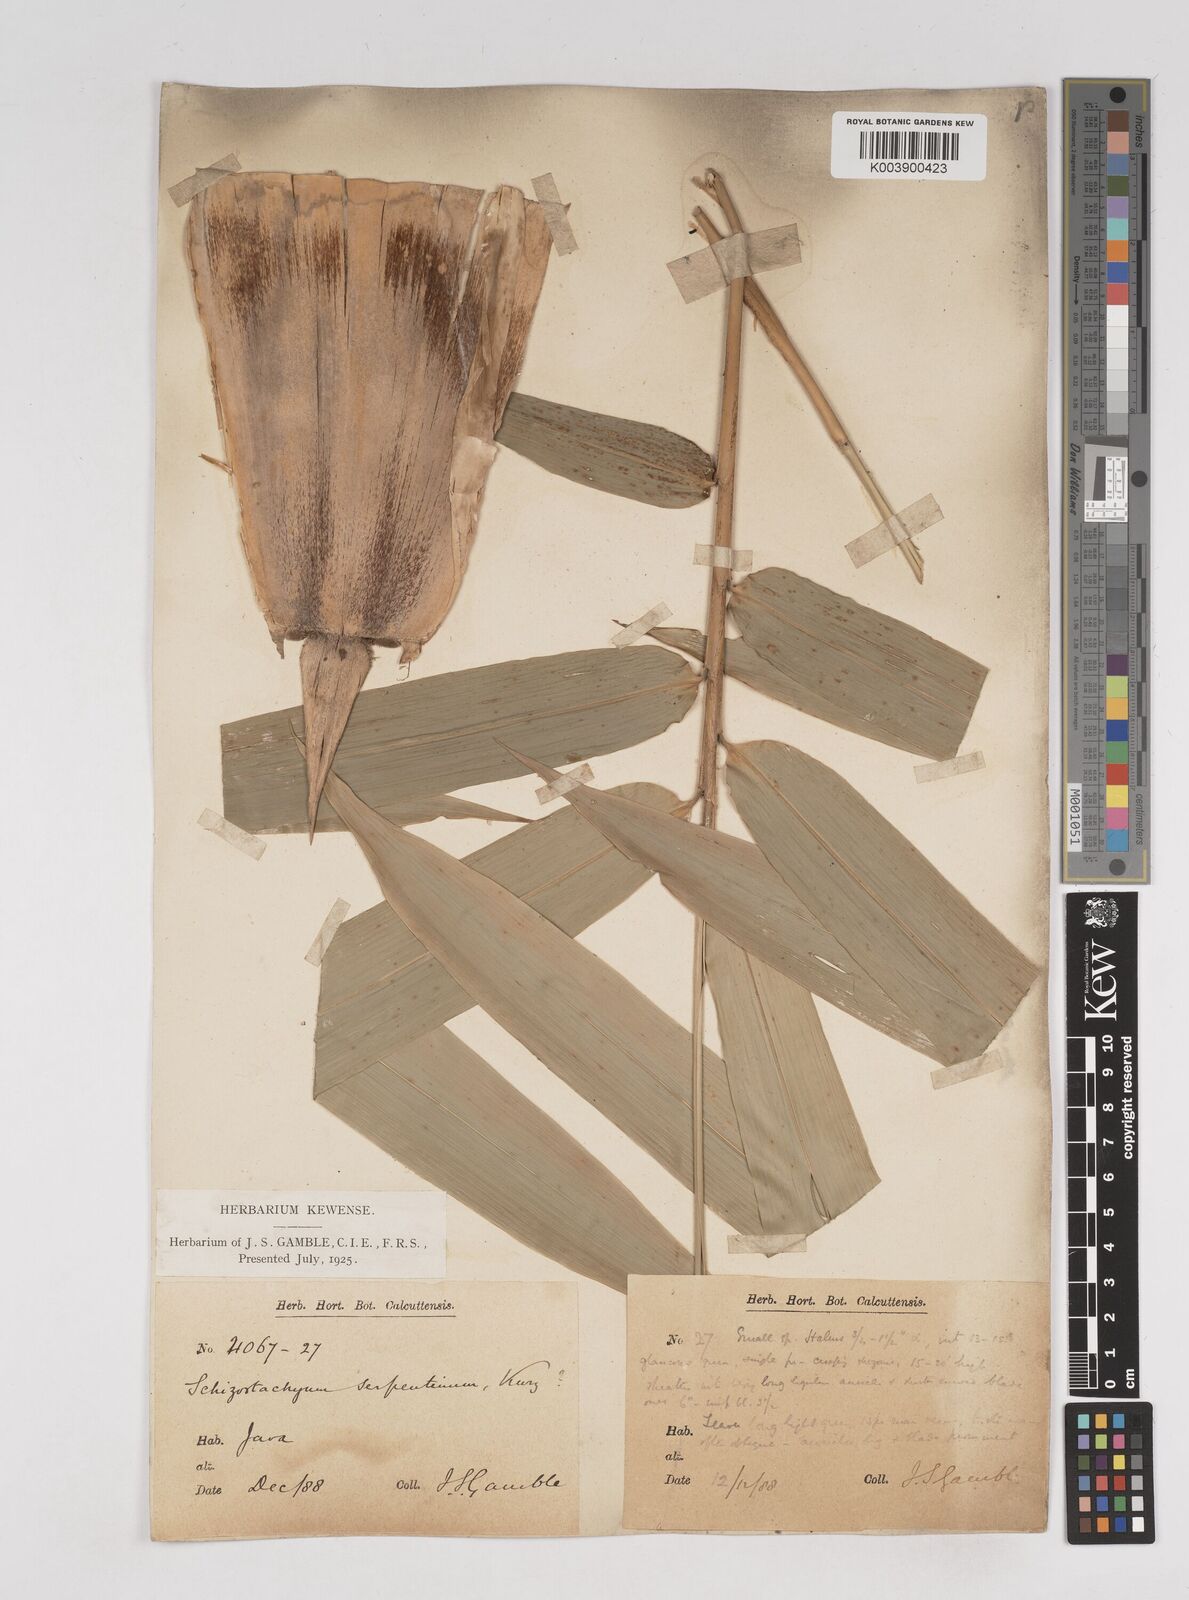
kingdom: Plantae
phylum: Tracheophyta
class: Liliopsida
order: Poales
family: Poaceae
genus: Gigantochloa
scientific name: Gigantochloa nigrociliata
